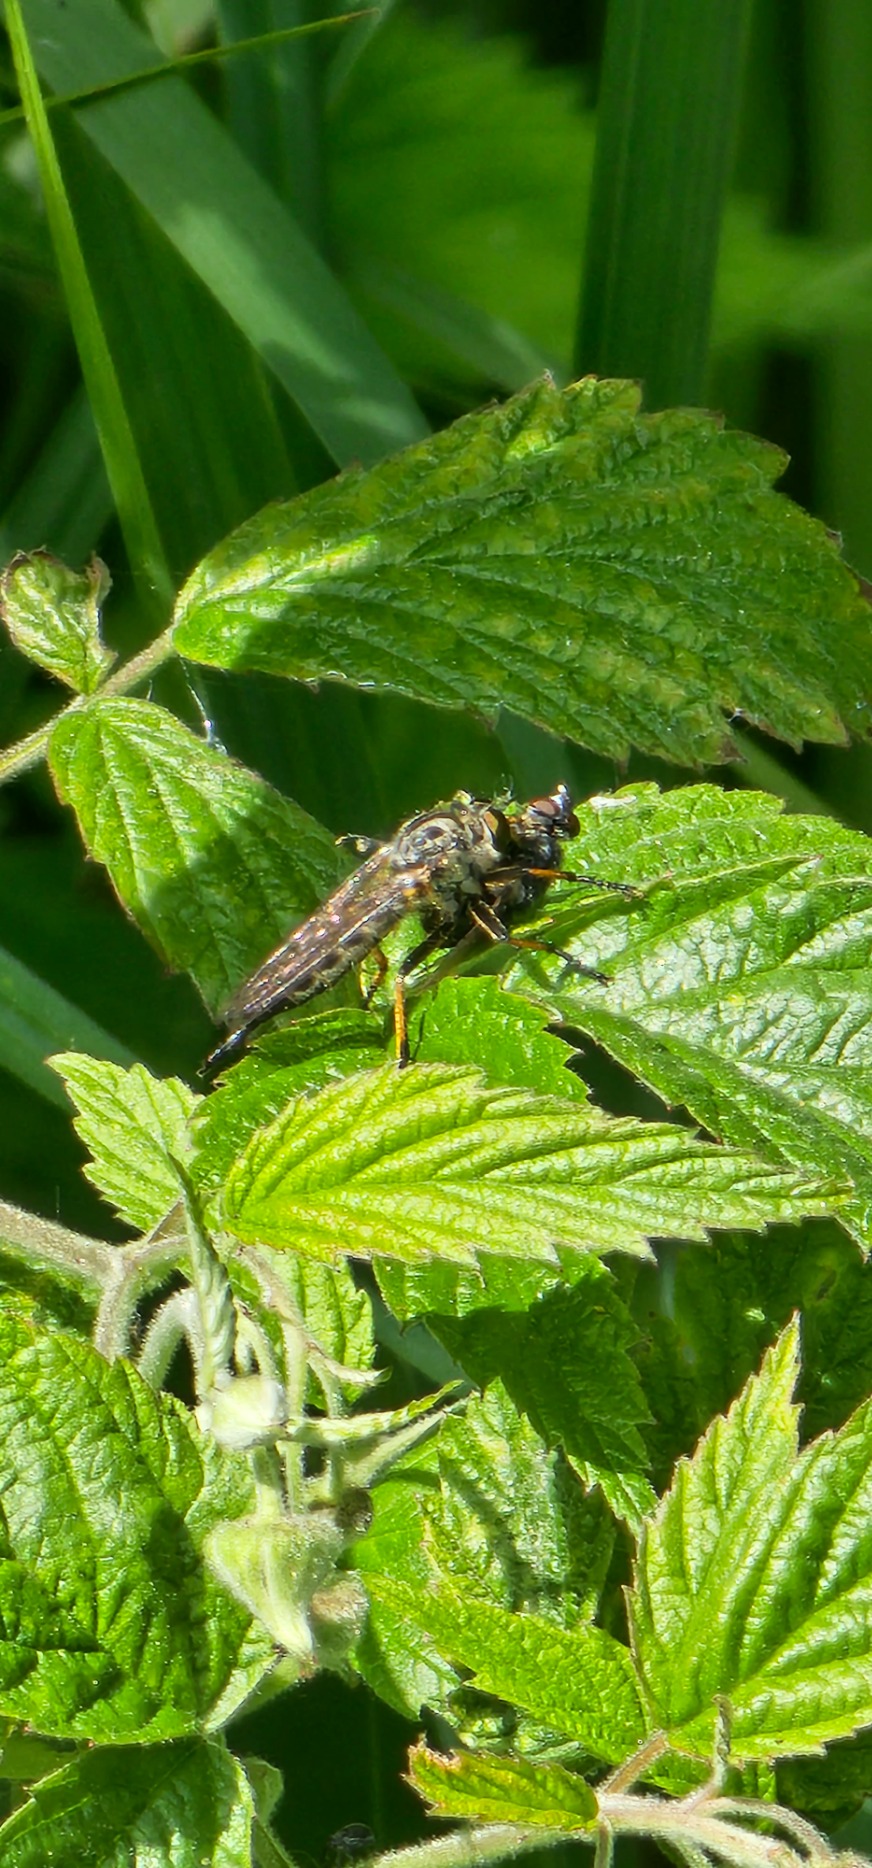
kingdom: Animalia
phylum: Arthropoda
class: Insecta
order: Diptera
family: Asilidae
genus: Neoitamus
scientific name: Neoitamus cyanurus
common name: Sortfodet skovrovflue
